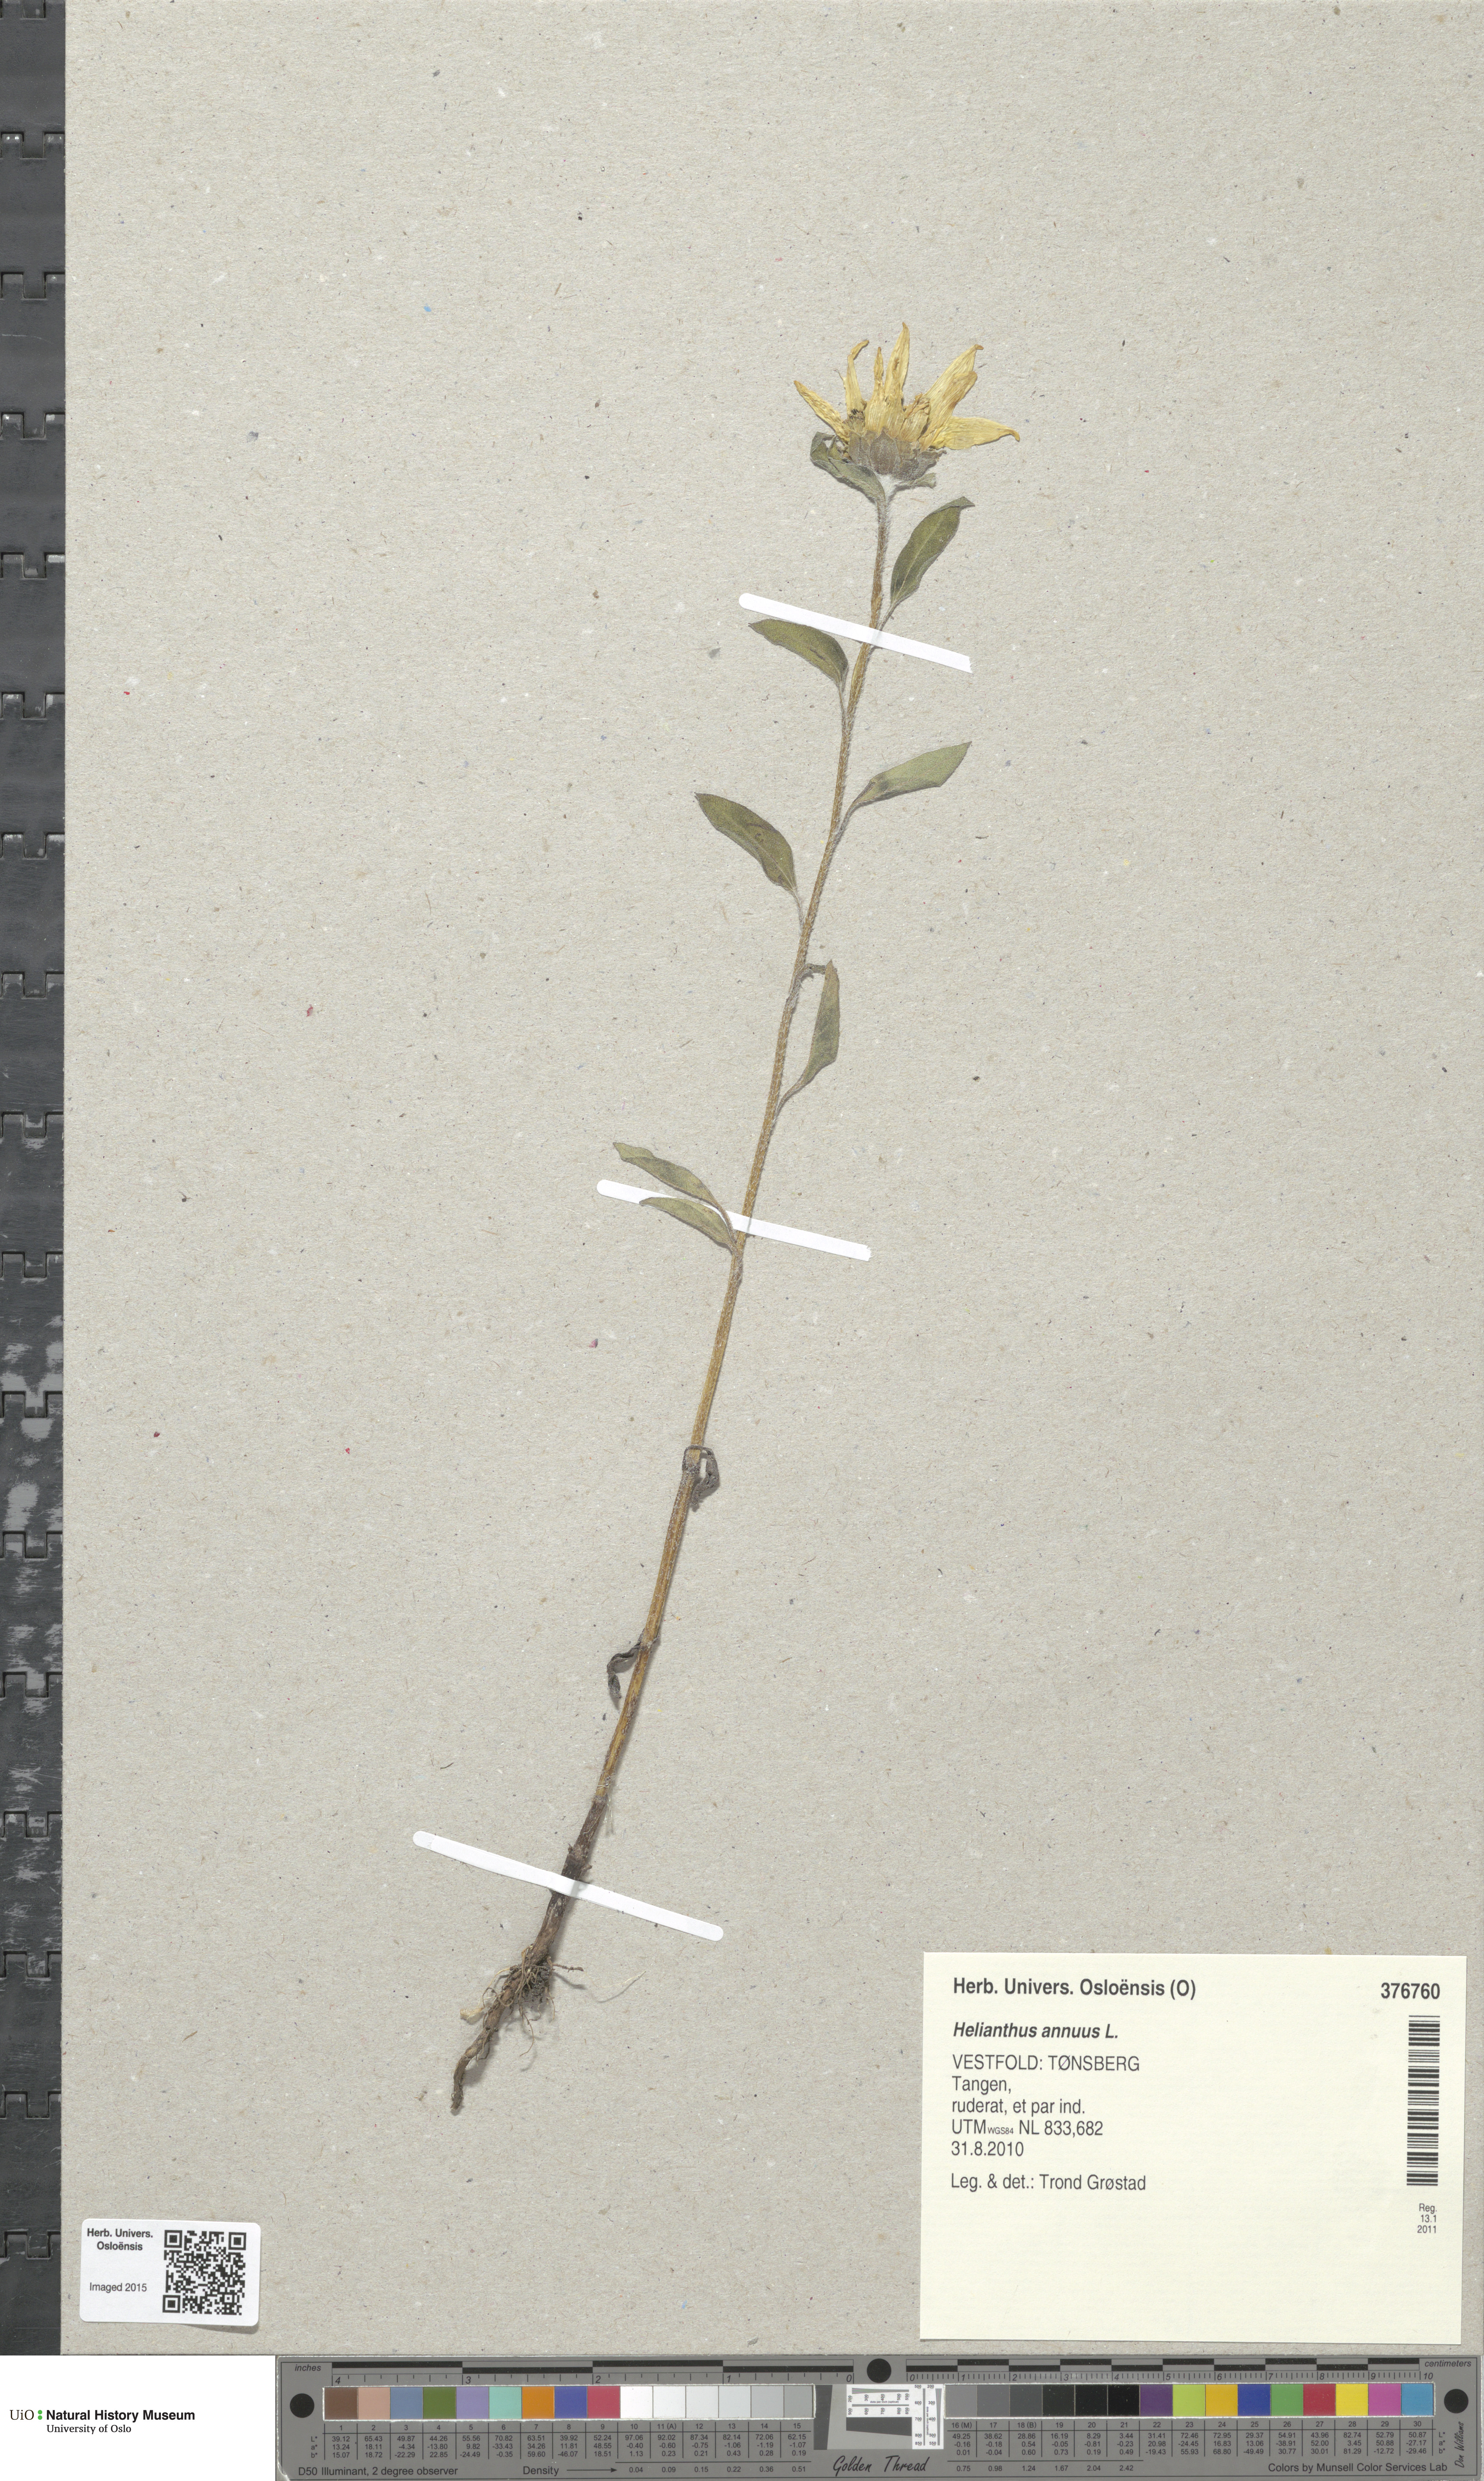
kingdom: Plantae
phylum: Tracheophyta
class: Magnoliopsida
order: Asterales
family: Asteraceae
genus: Helianthus
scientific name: Helianthus annuus
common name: Sunflower
